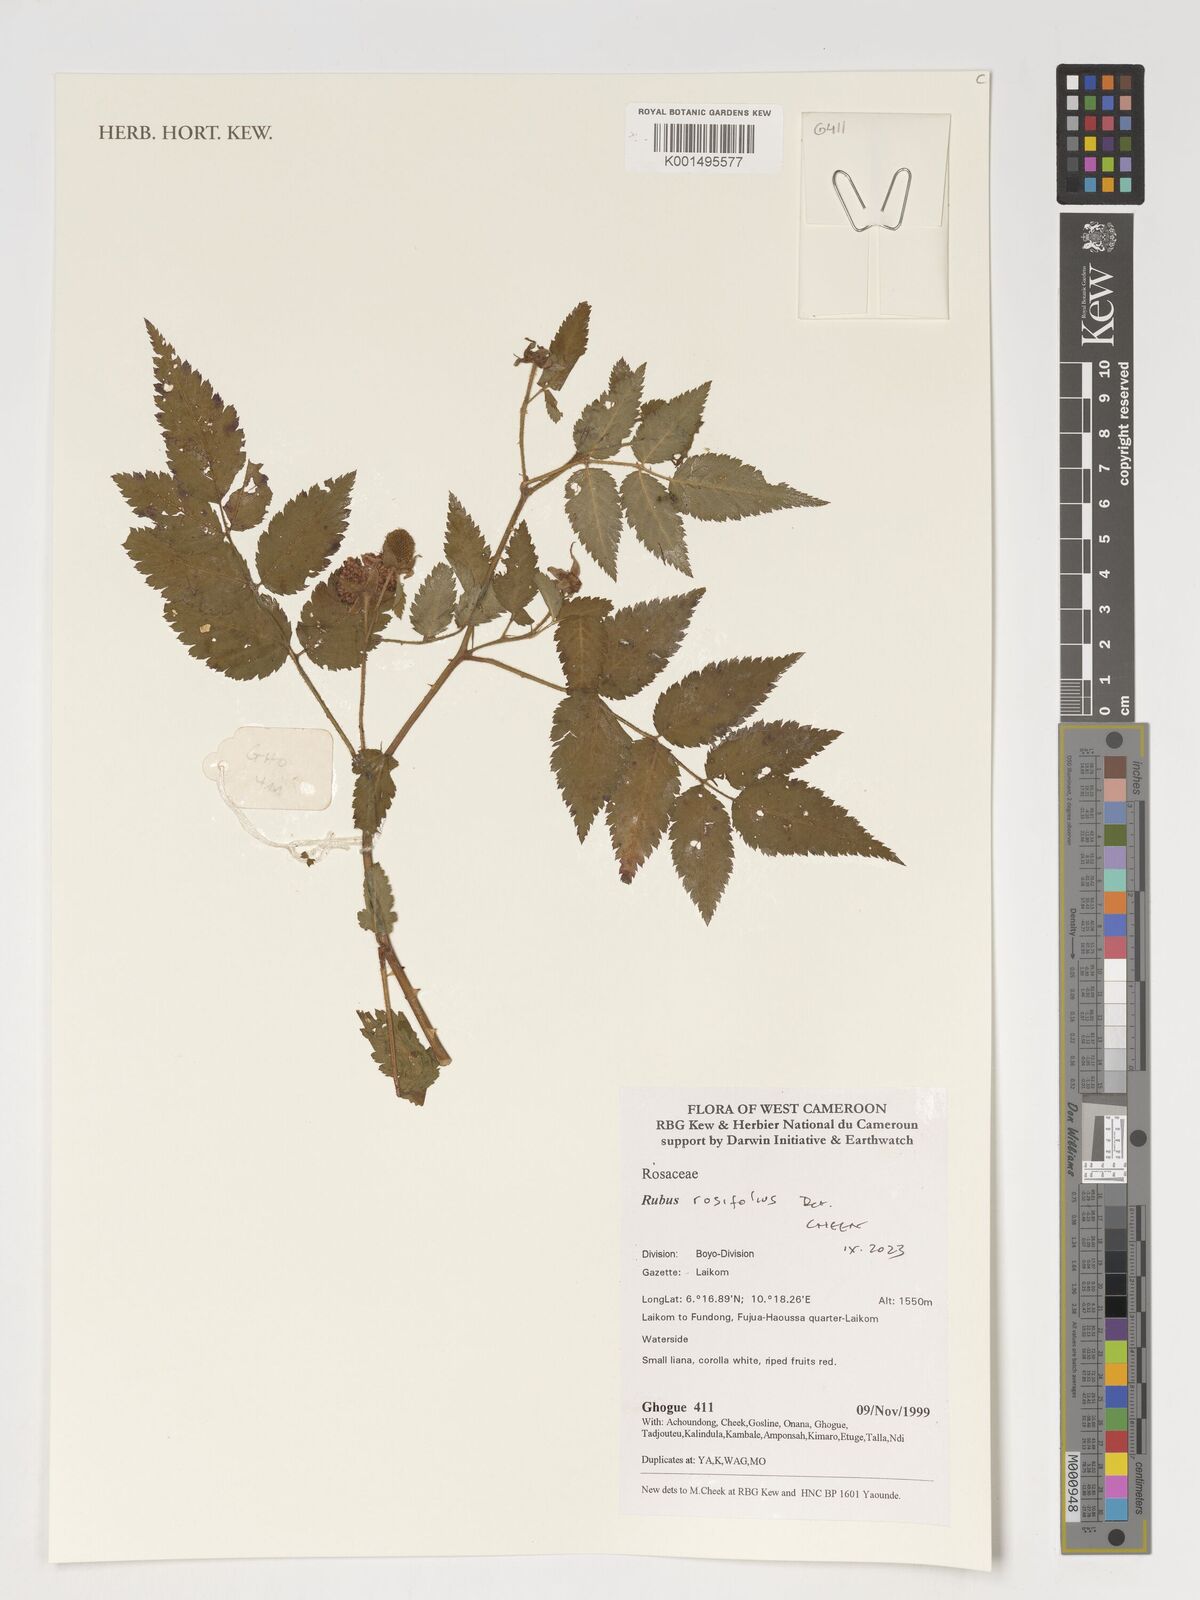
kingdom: Plantae
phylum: Tracheophyta
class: Magnoliopsida
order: Rosales
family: Rosaceae
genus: Rubus
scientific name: Rubus
